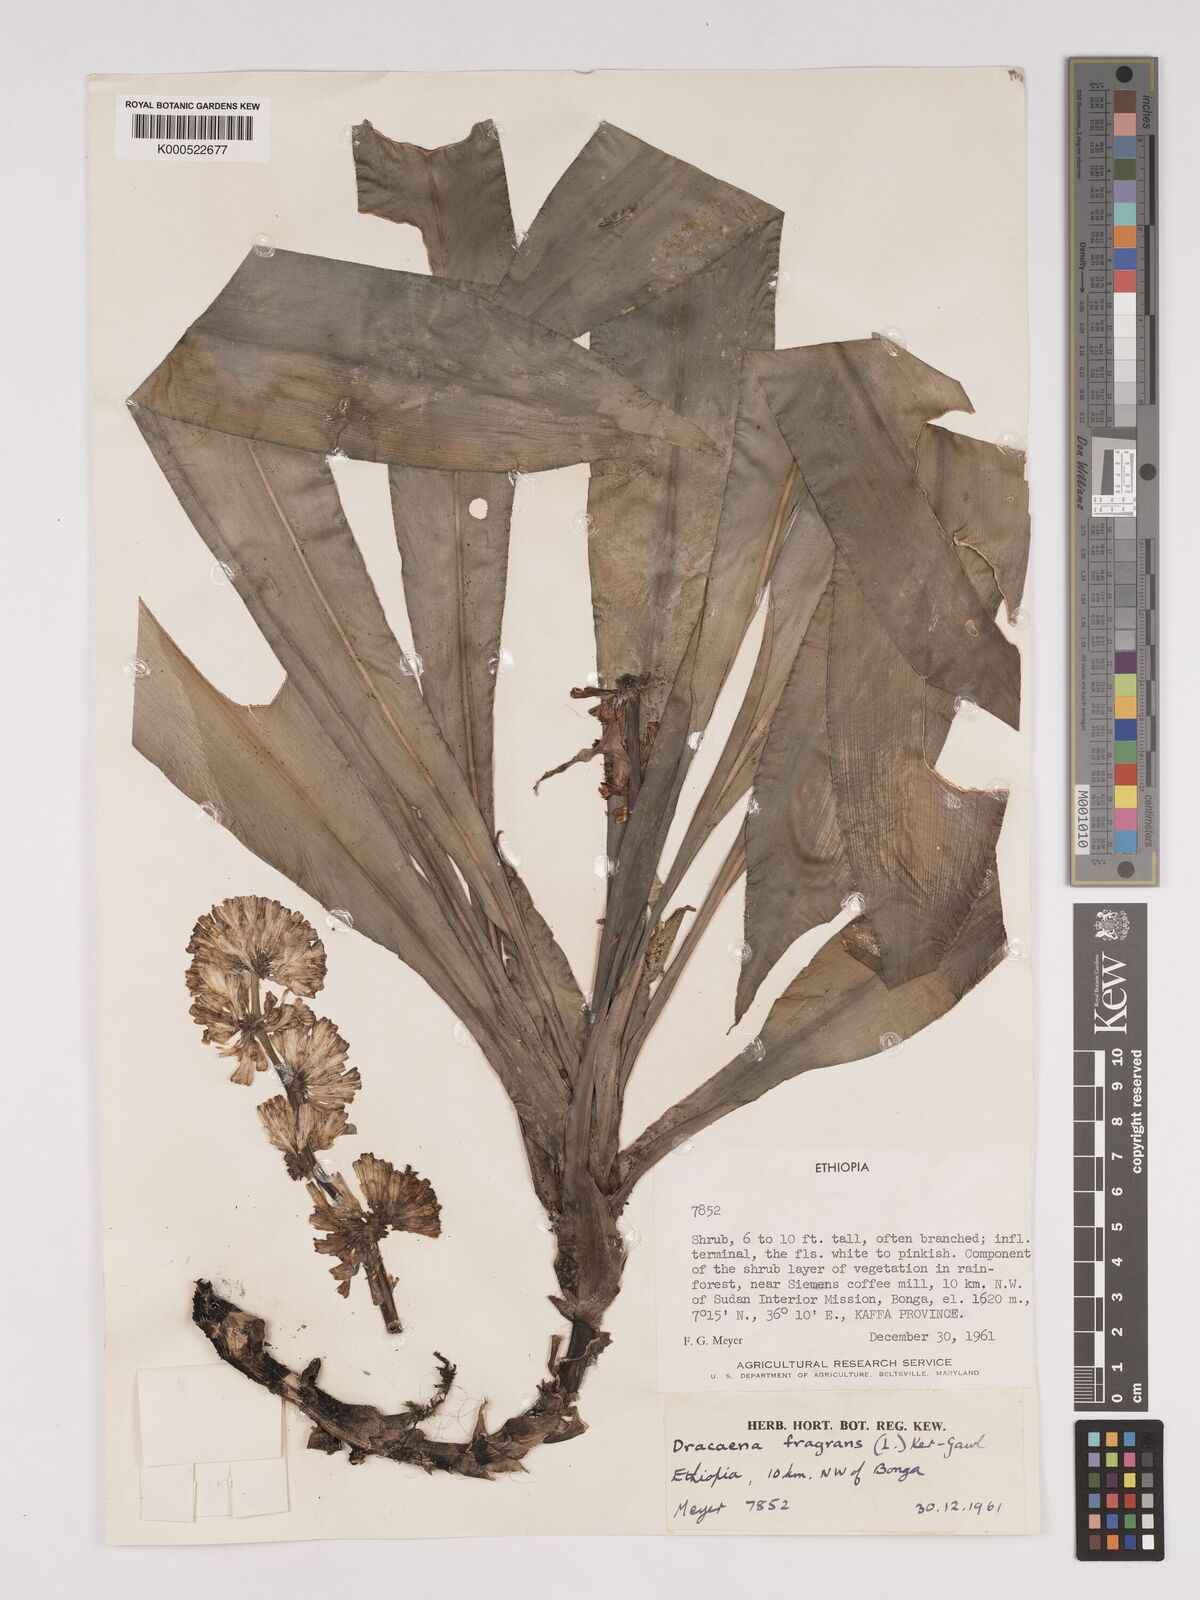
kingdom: Plantae
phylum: Tracheophyta
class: Liliopsida
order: Asparagales
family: Asparagaceae
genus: Dracaena
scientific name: Dracaena fragrans
